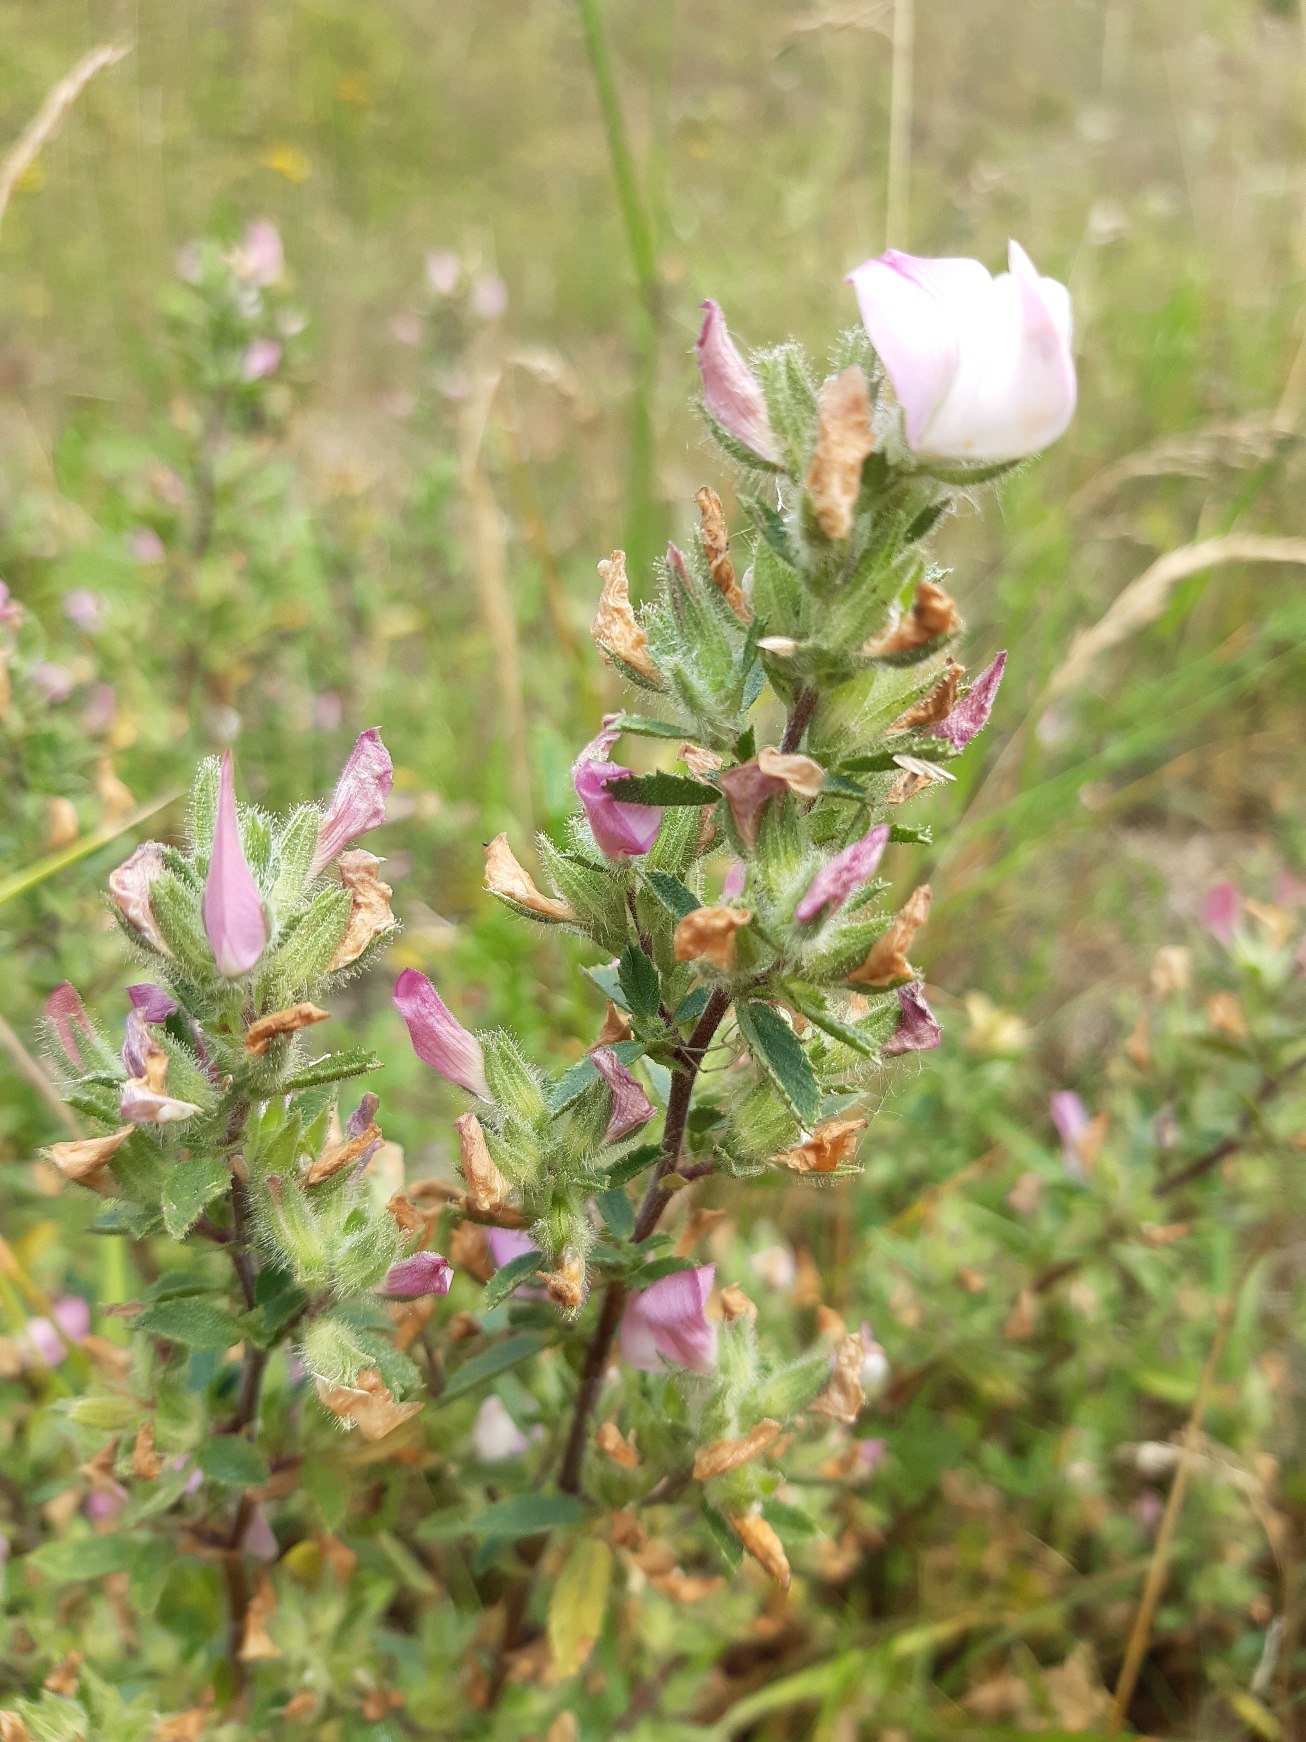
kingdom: Plantae
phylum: Tracheophyta
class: Magnoliopsida
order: Fabales
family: Fabaceae
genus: Ononis
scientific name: Ononis spinosa
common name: Mark-krageklo
